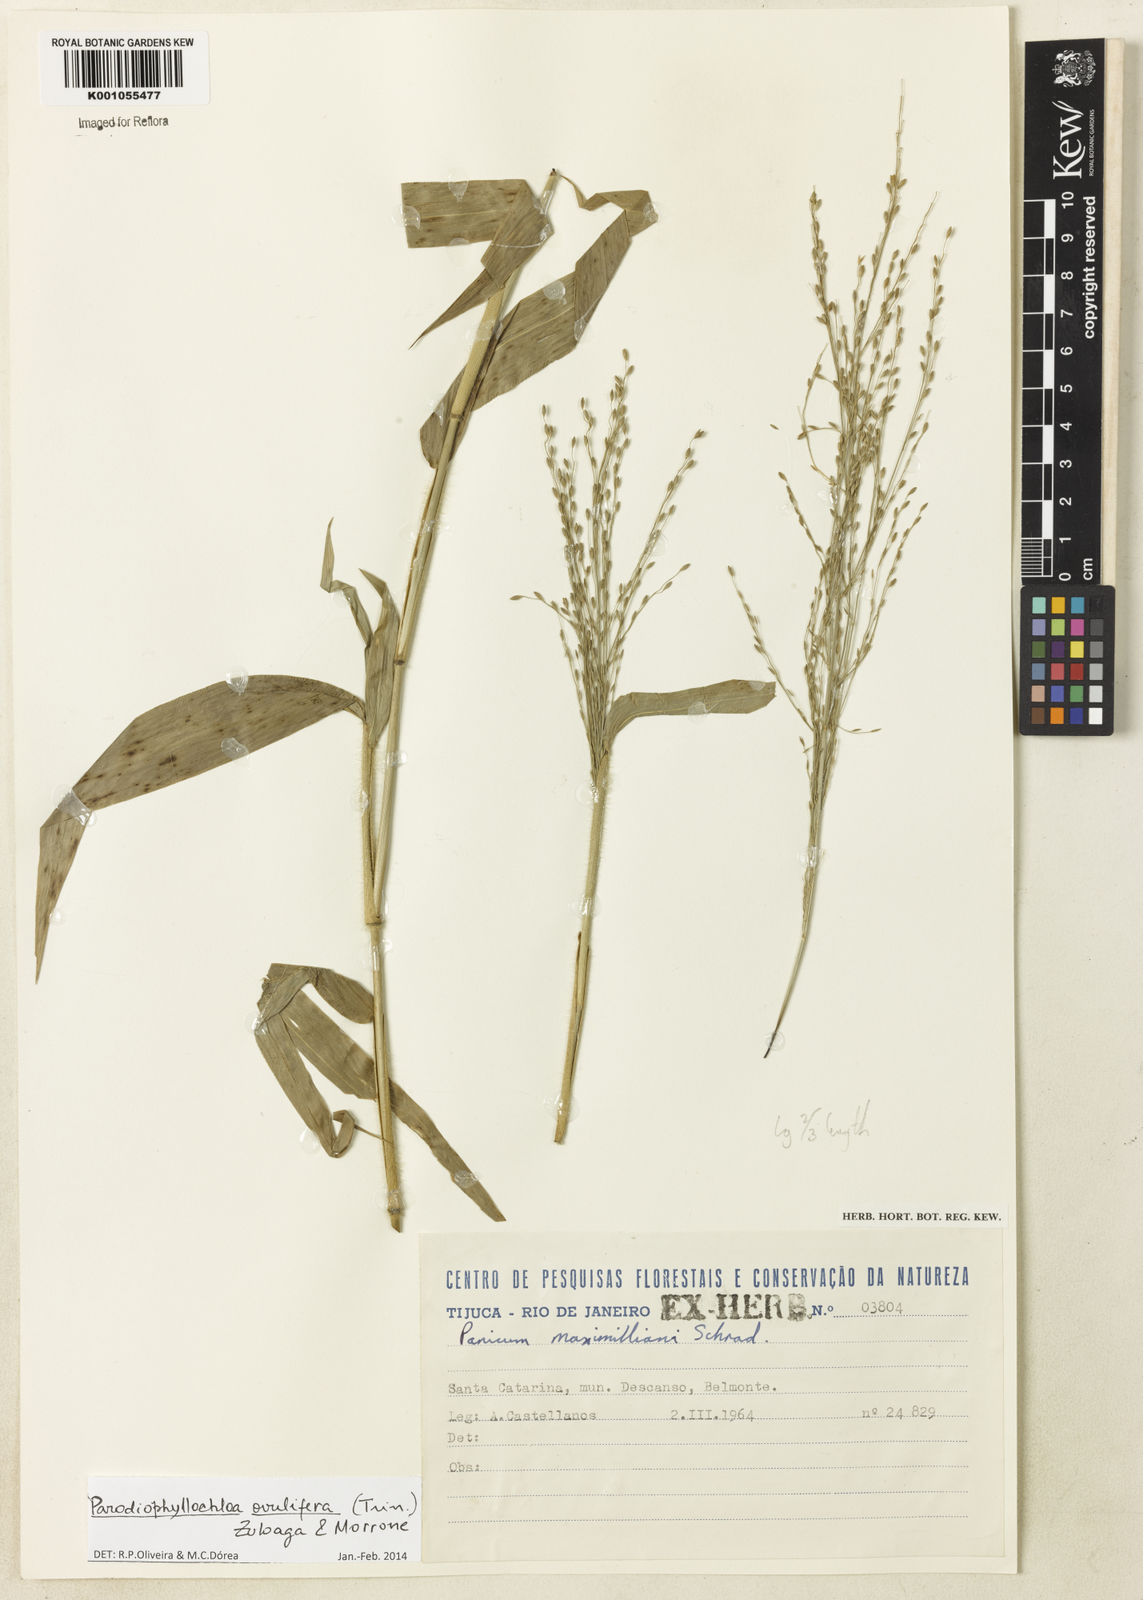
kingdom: Plantae
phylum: Tracheophyta
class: Liliopsida
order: Poales
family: Poaceae
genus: Parodiophyllochloa
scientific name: Parodiophyllochloa ovulifera
